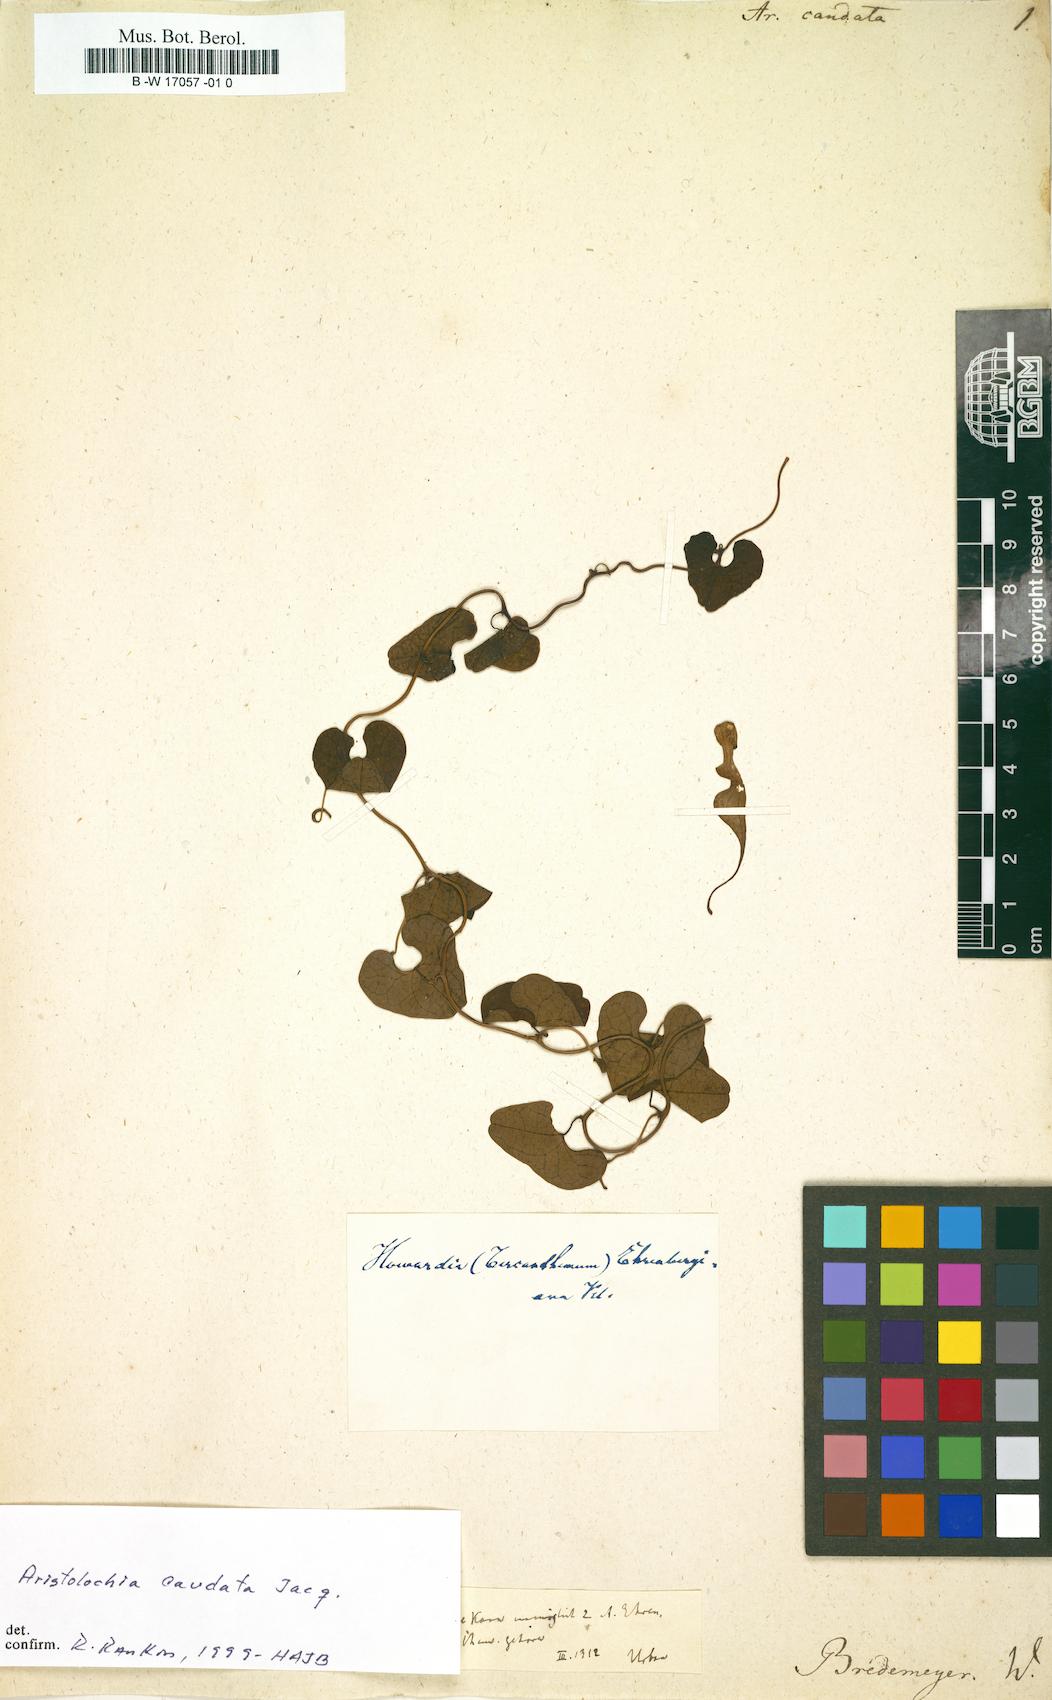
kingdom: Plantae
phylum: Tracheophyta
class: Magnoliopsida
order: Piperales
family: Aristolochiaceae
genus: Aristolochia
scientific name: Aristolochia caudata
